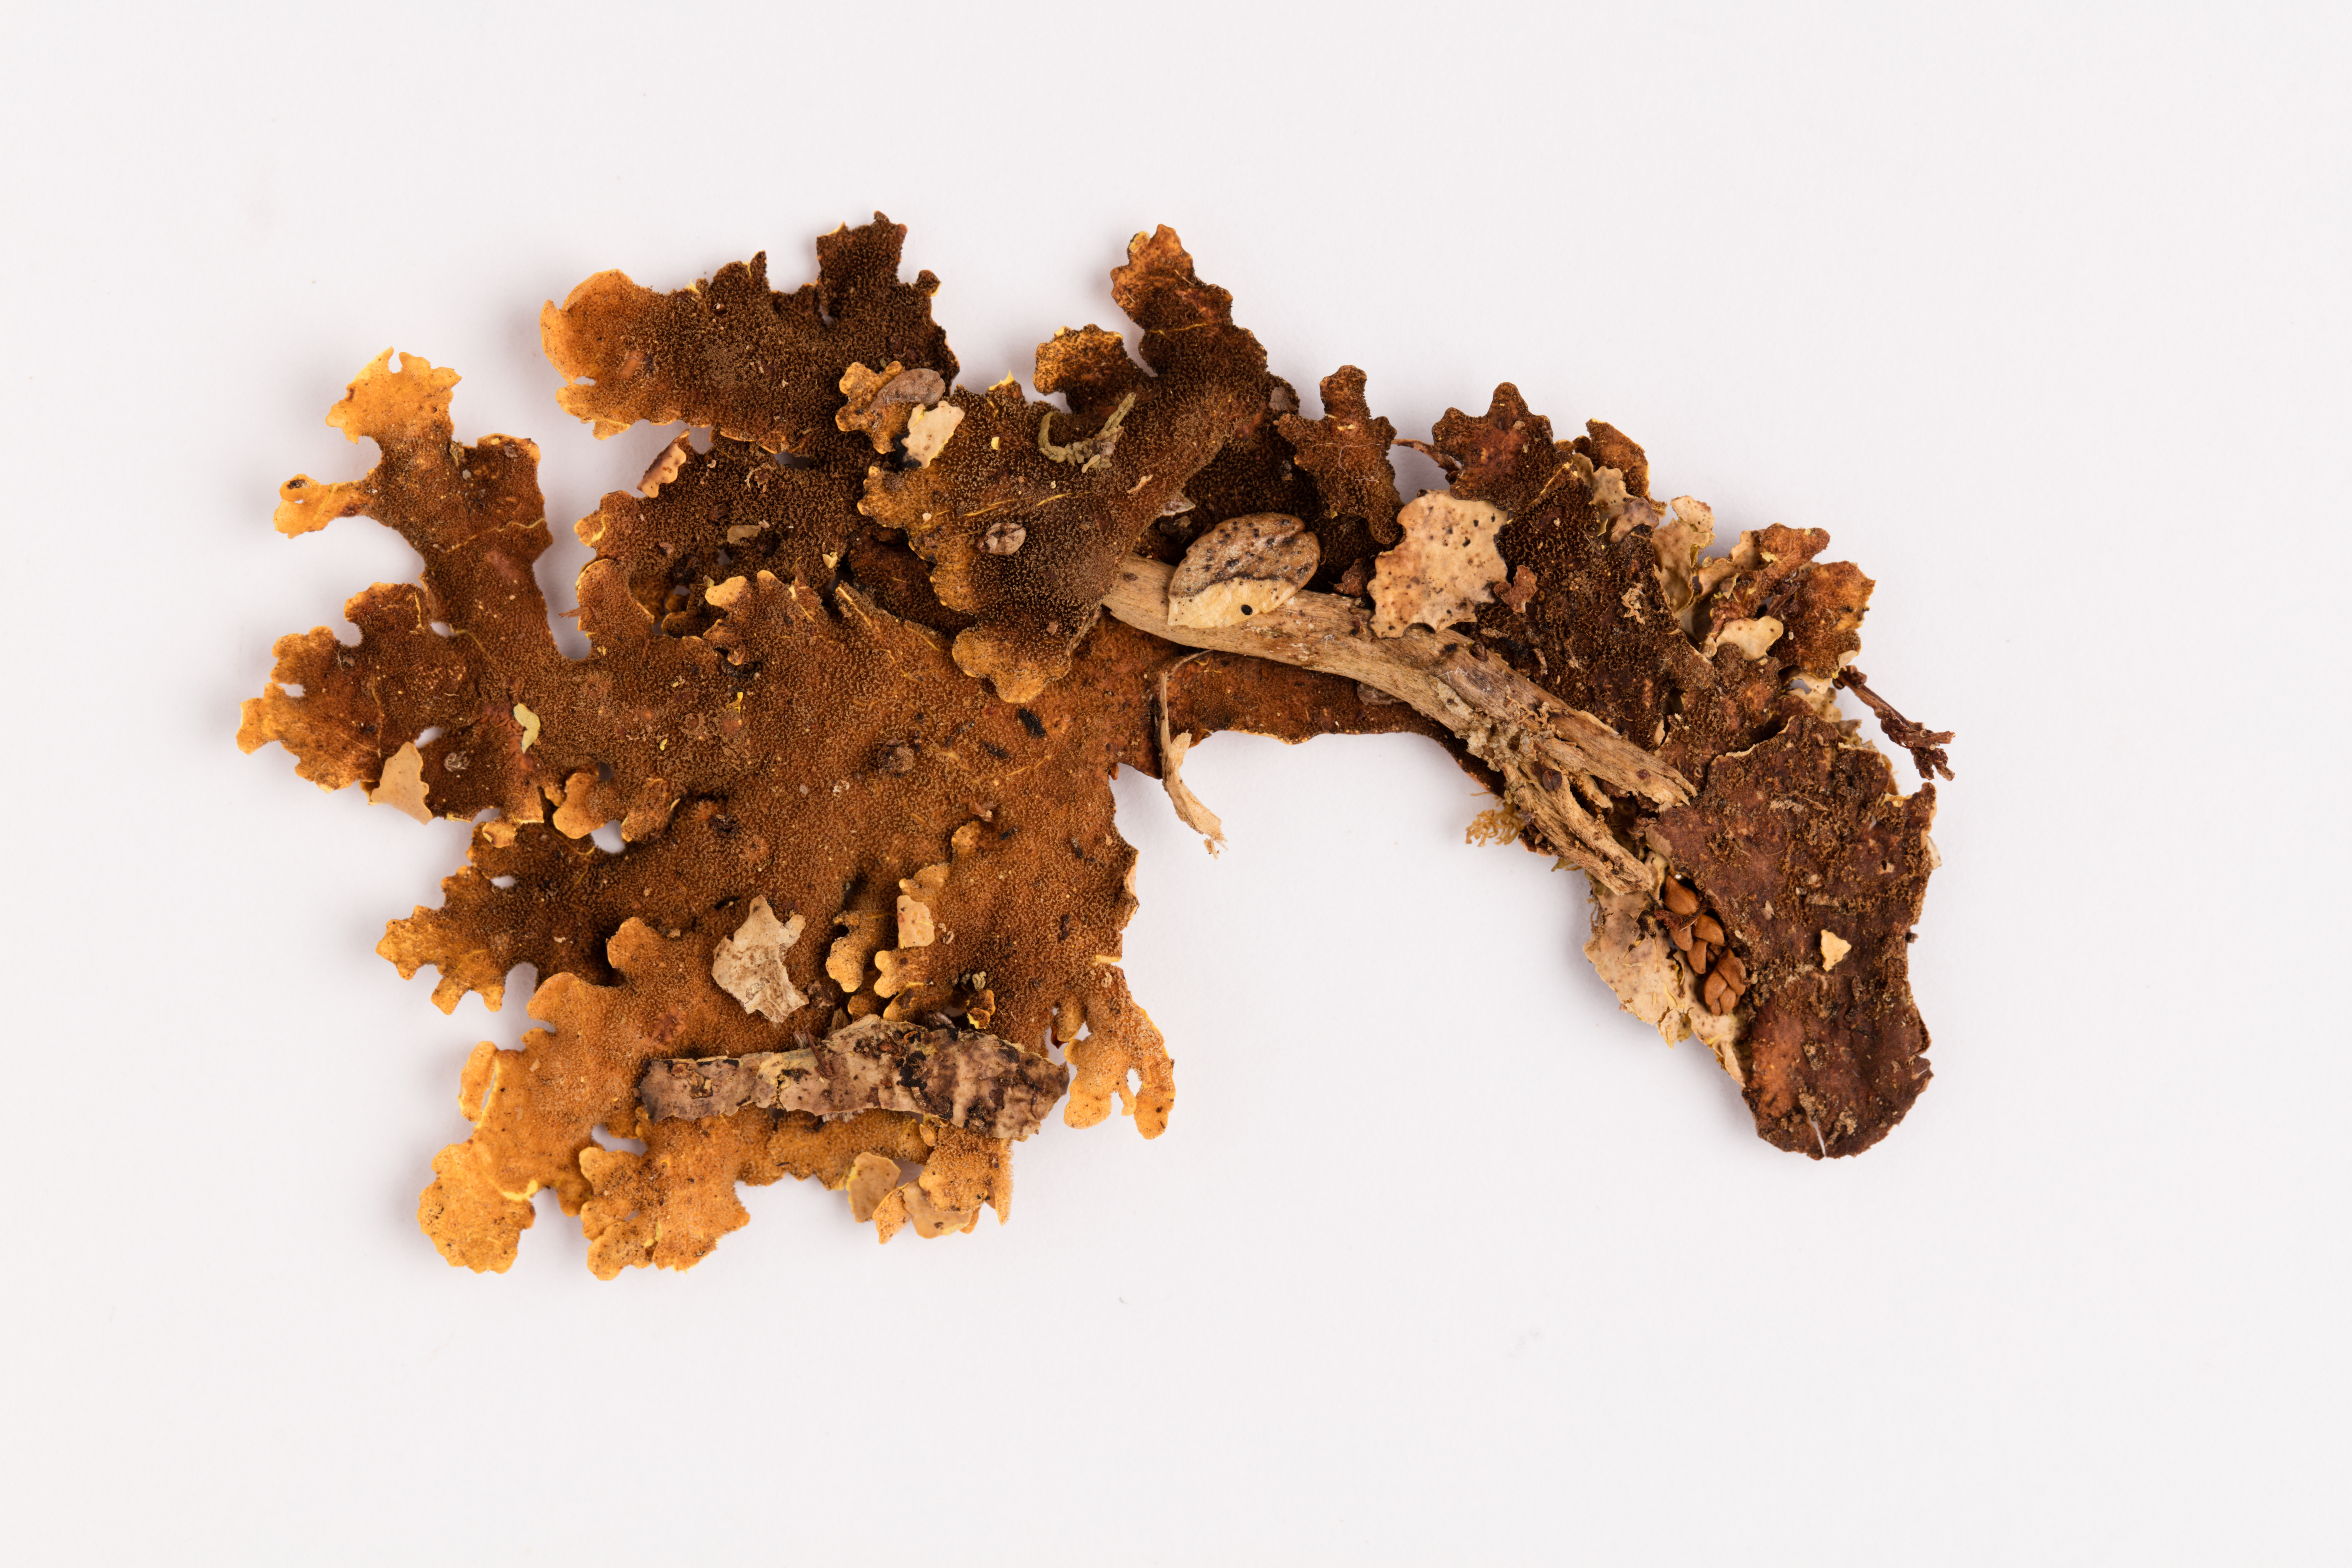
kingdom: Fungi
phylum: Ascomycota
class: Lecanoromycetes
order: Peltigerales
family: Lobariaceae
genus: Yarrumia
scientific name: Yarrumia coronata
